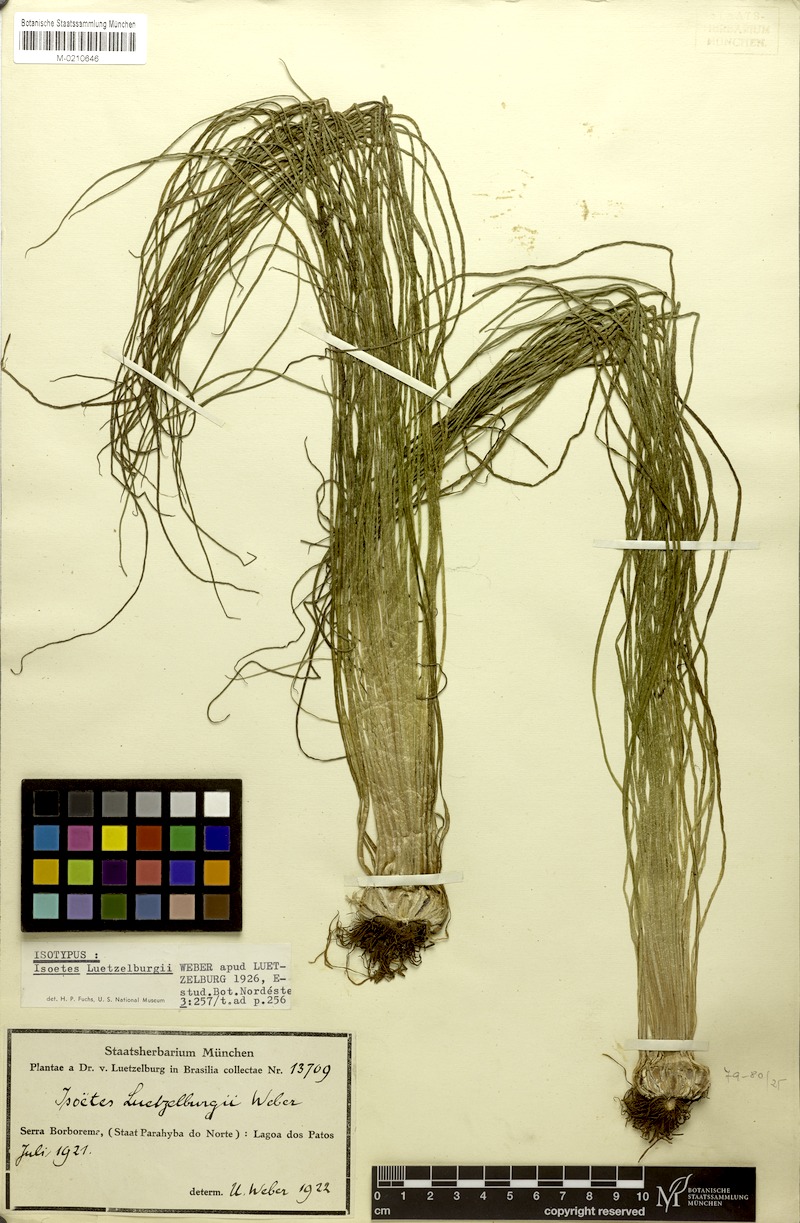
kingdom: Plantae
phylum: Tracheophyta
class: Lycopodiopsida
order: Isoetales
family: Isoetaceae
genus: Isoetes
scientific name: Isoetes luetzelburgii
